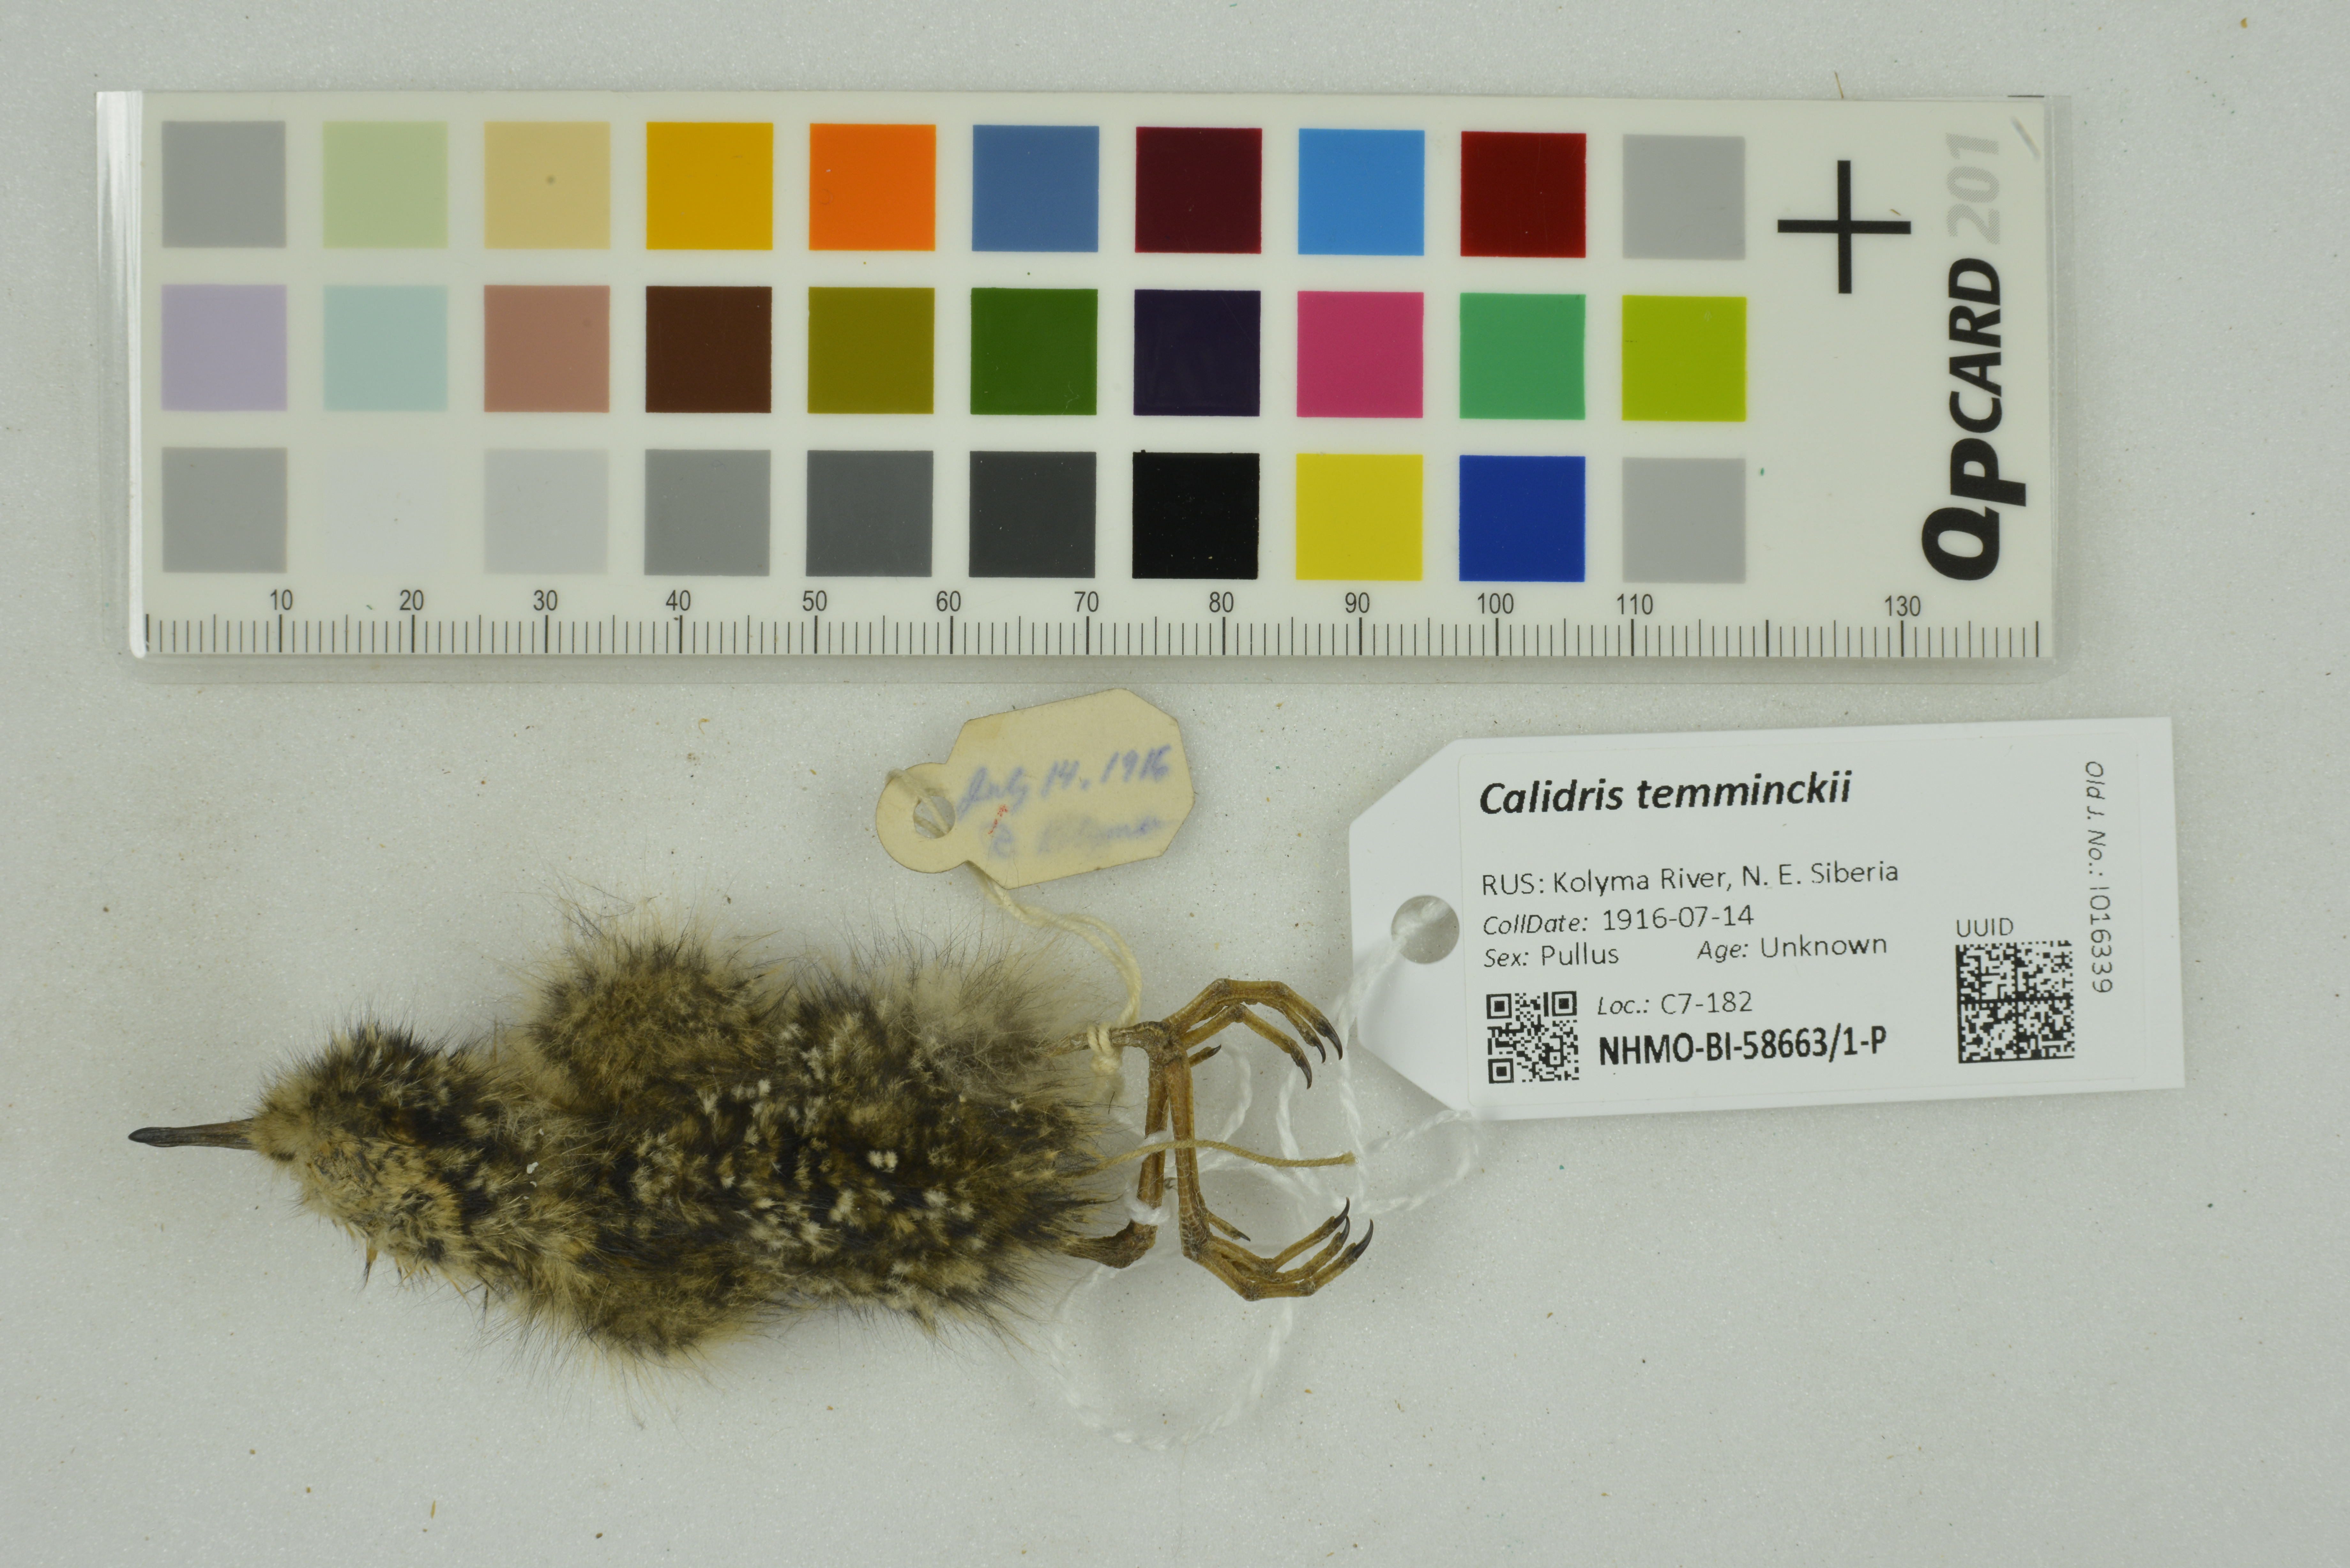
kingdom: Animalia
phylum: Chordata
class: Aves
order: Charadriiformes
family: Scolopacidae
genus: Calidris
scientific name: Calidris temminckii
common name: Temminck's stint
